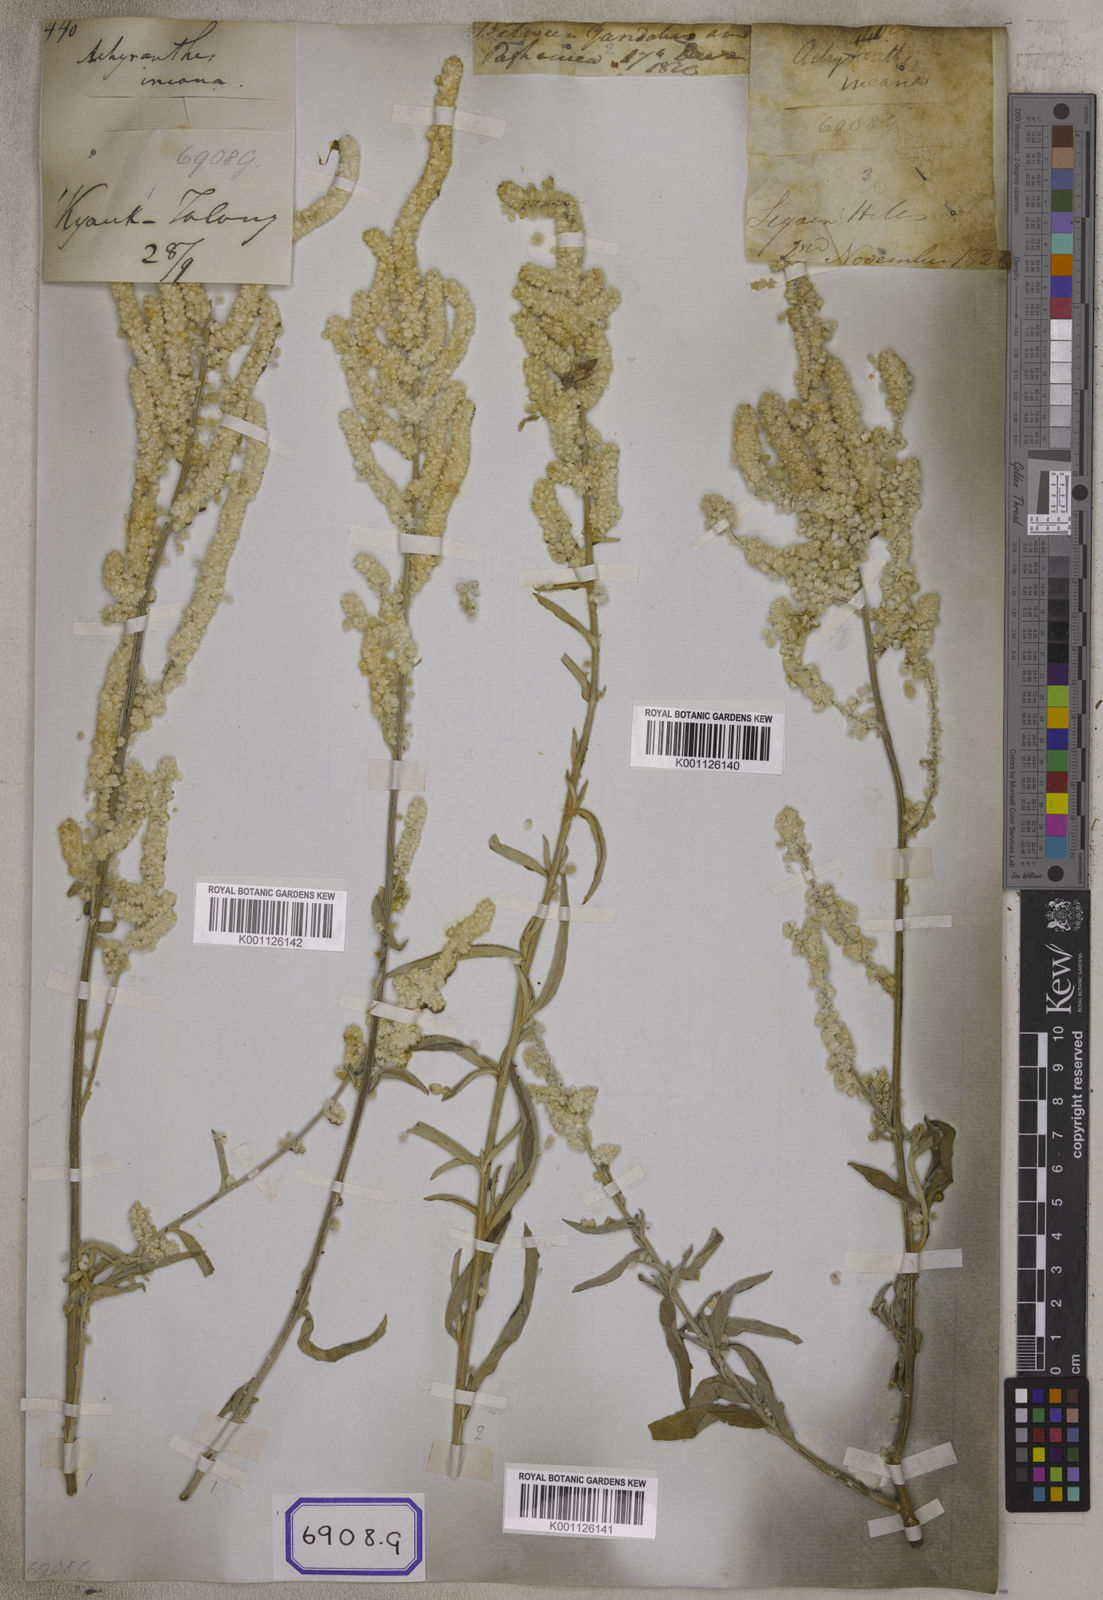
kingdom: Plantae
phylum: Tracheophyta
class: Magnoliopsida
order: Caryophyllales
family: Amaranthaceae
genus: Aerva
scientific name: Aerva
